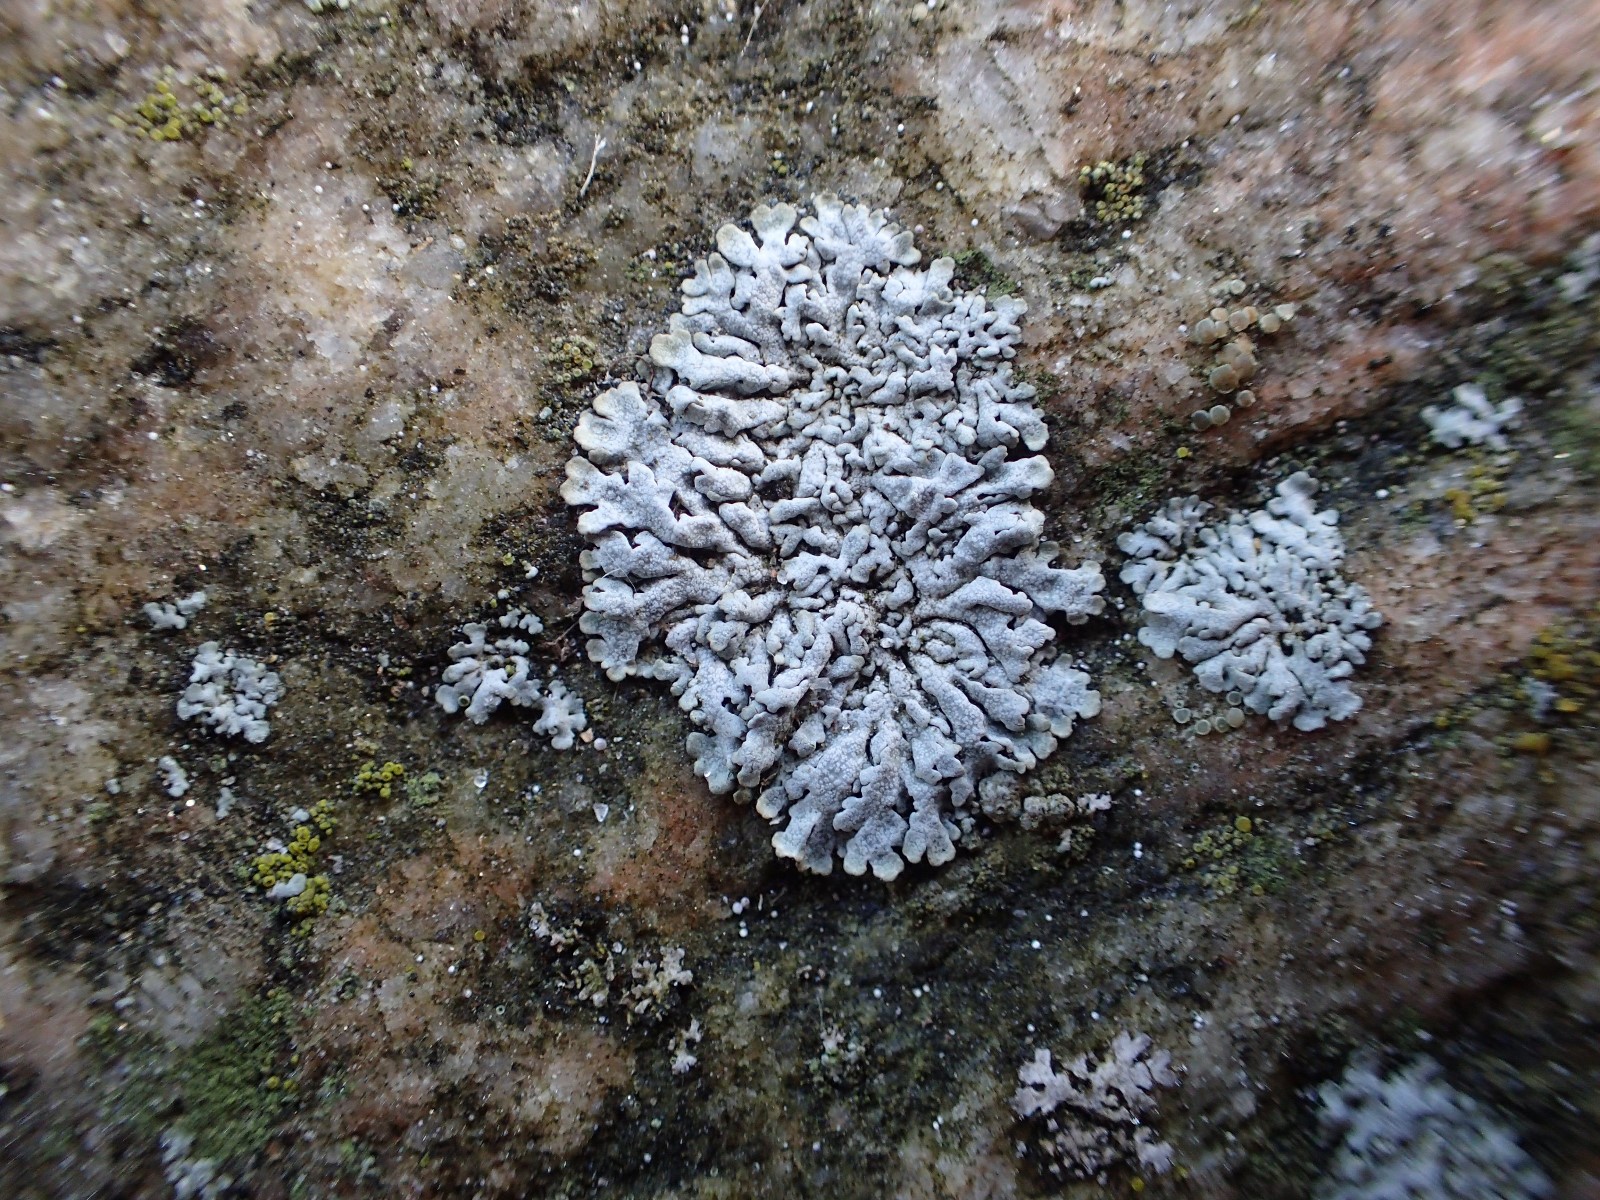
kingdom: Fungi
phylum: Ascomycota
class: Lecanoromycetes
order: Caliciales
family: Physciaceae
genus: Physcia
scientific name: Physcia caesia
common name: blågrå rosetlav
